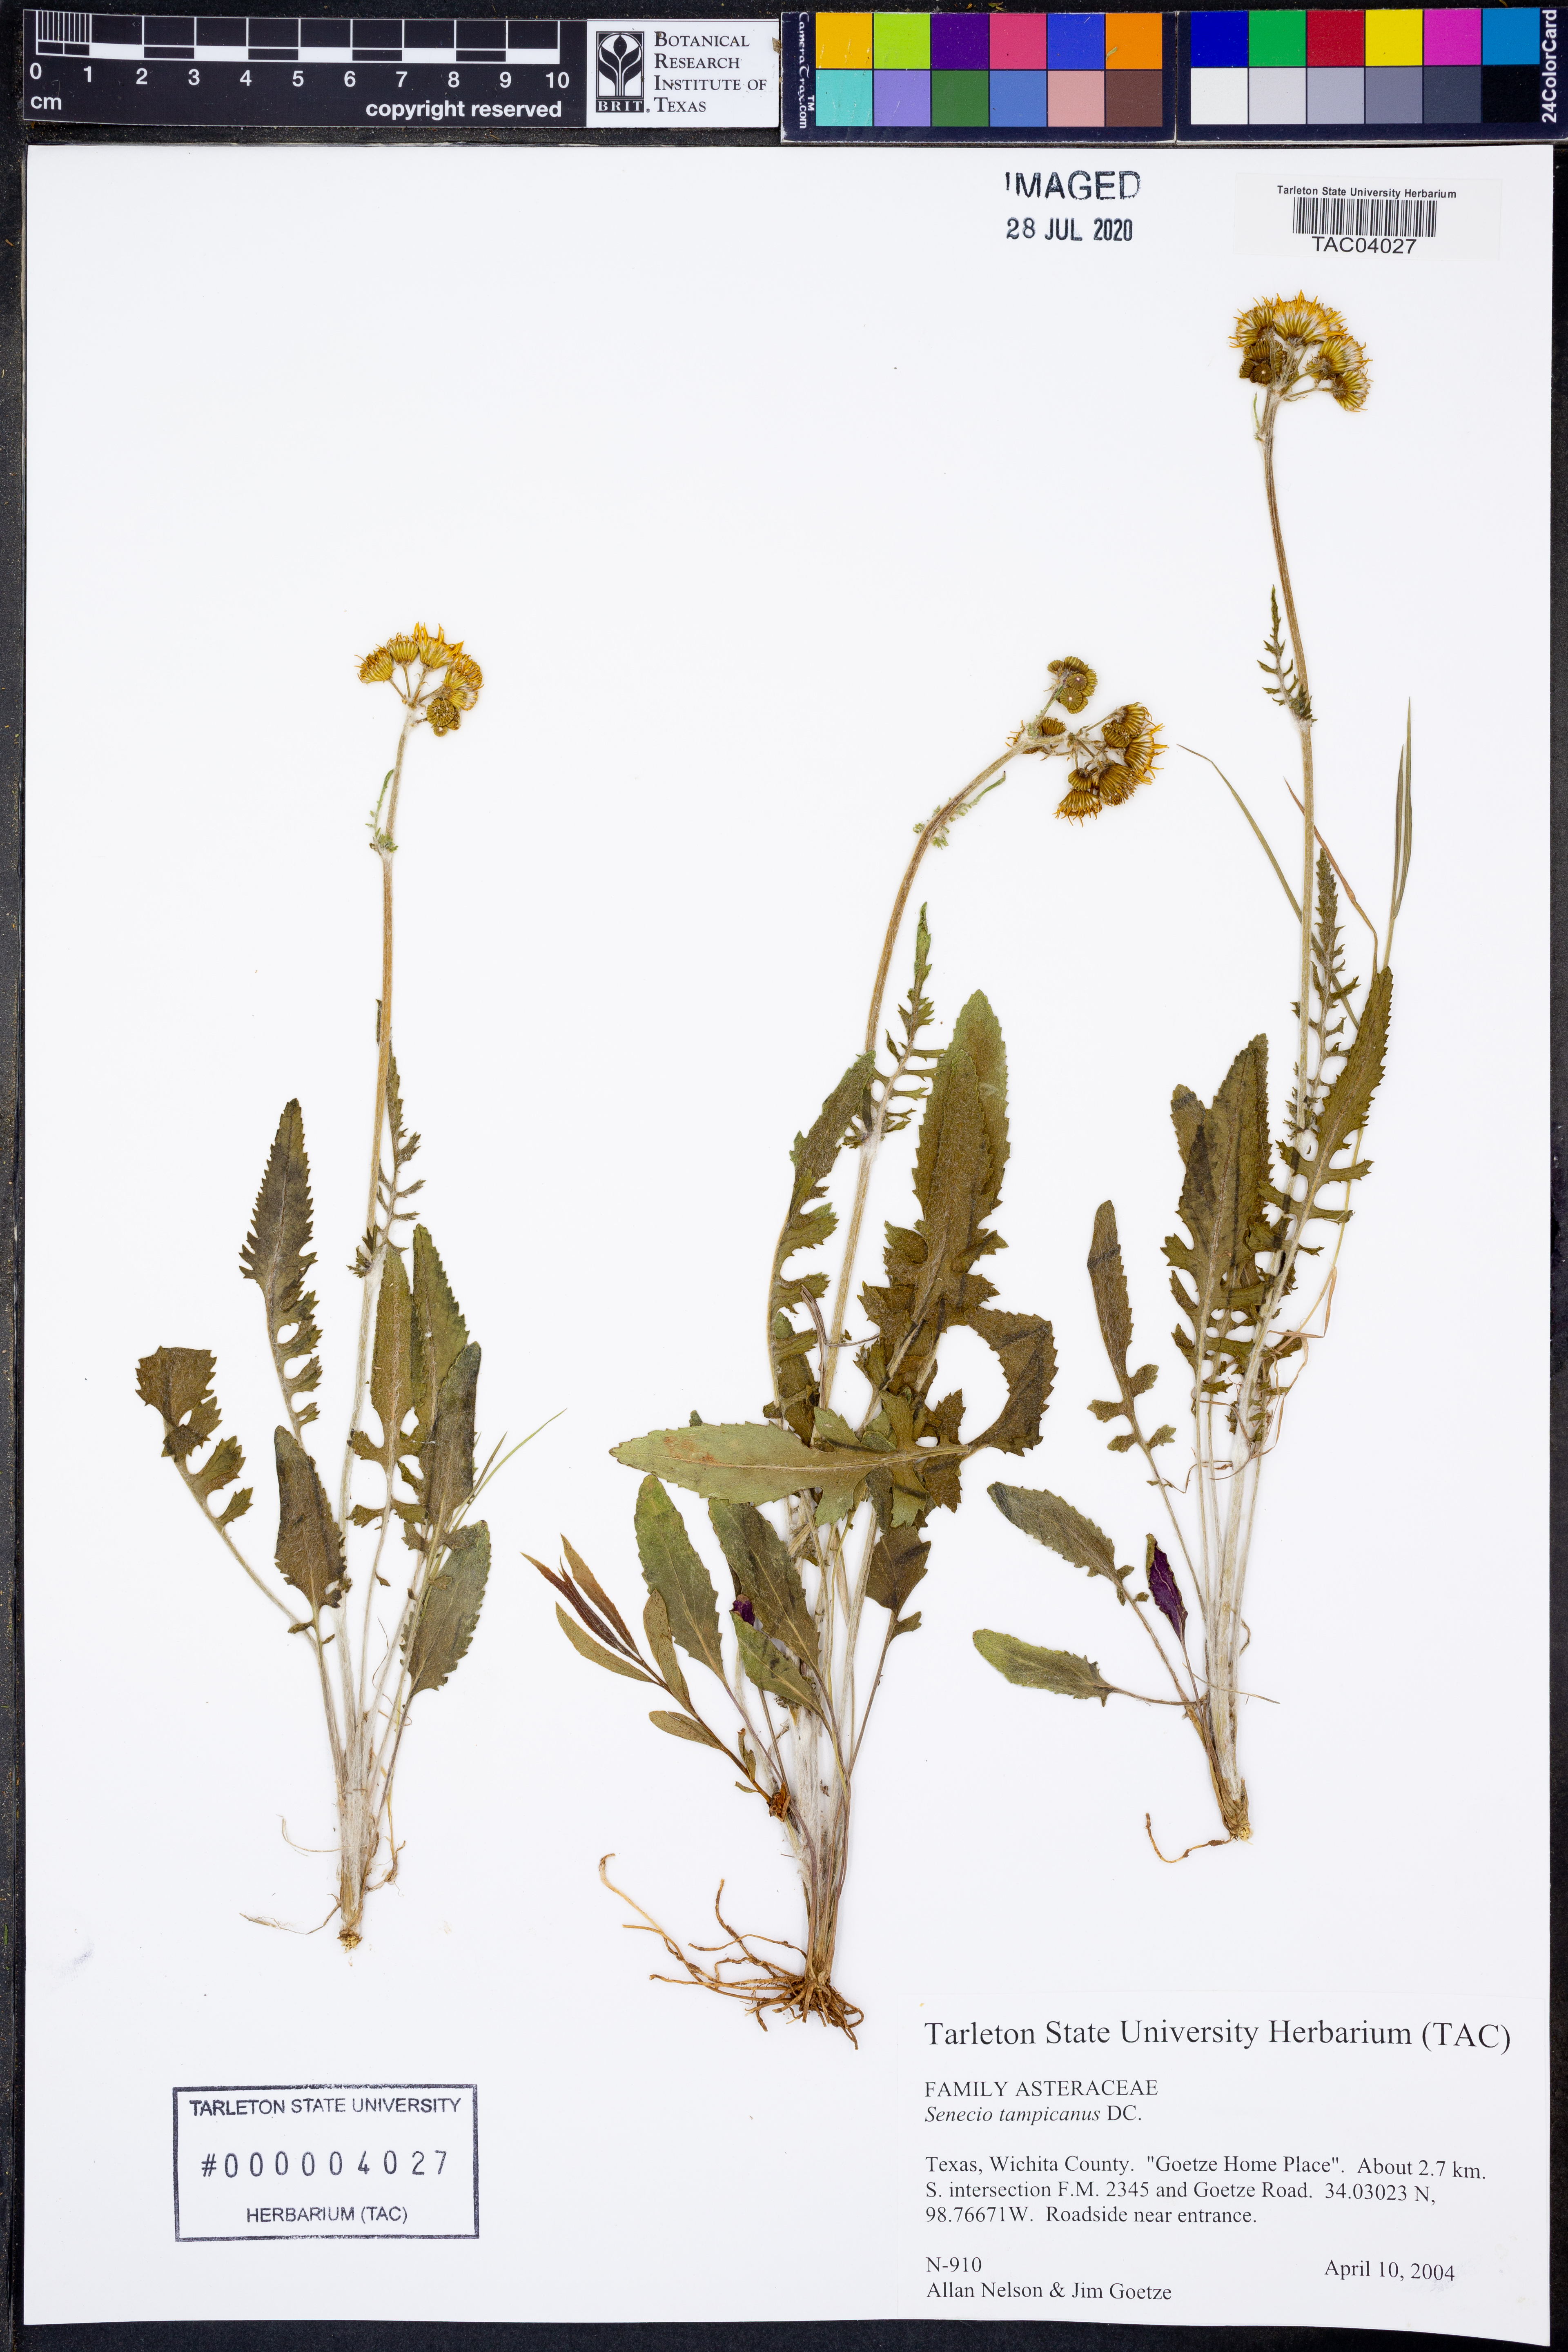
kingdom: Plantae
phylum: Tracheophyta
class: Magnoliopsida
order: Asterales
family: Asteraceae
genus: Packera
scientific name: Packera tampicana
